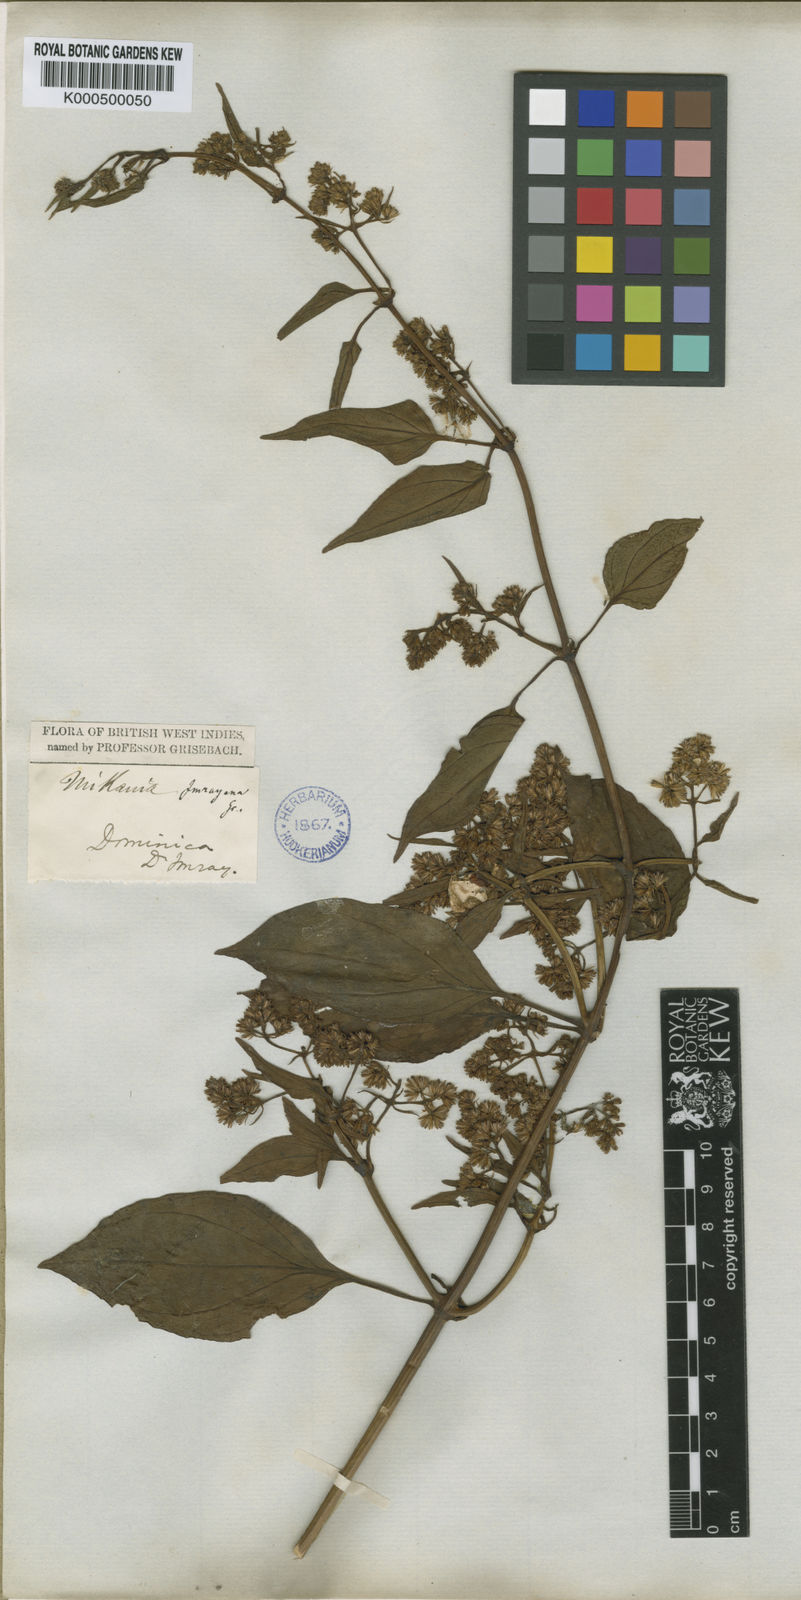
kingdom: Plantae
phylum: Tracheophyta
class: Magnoliopsida
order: Asterales
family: Asteraceae
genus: Mikania
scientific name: Mikania hookeriana
